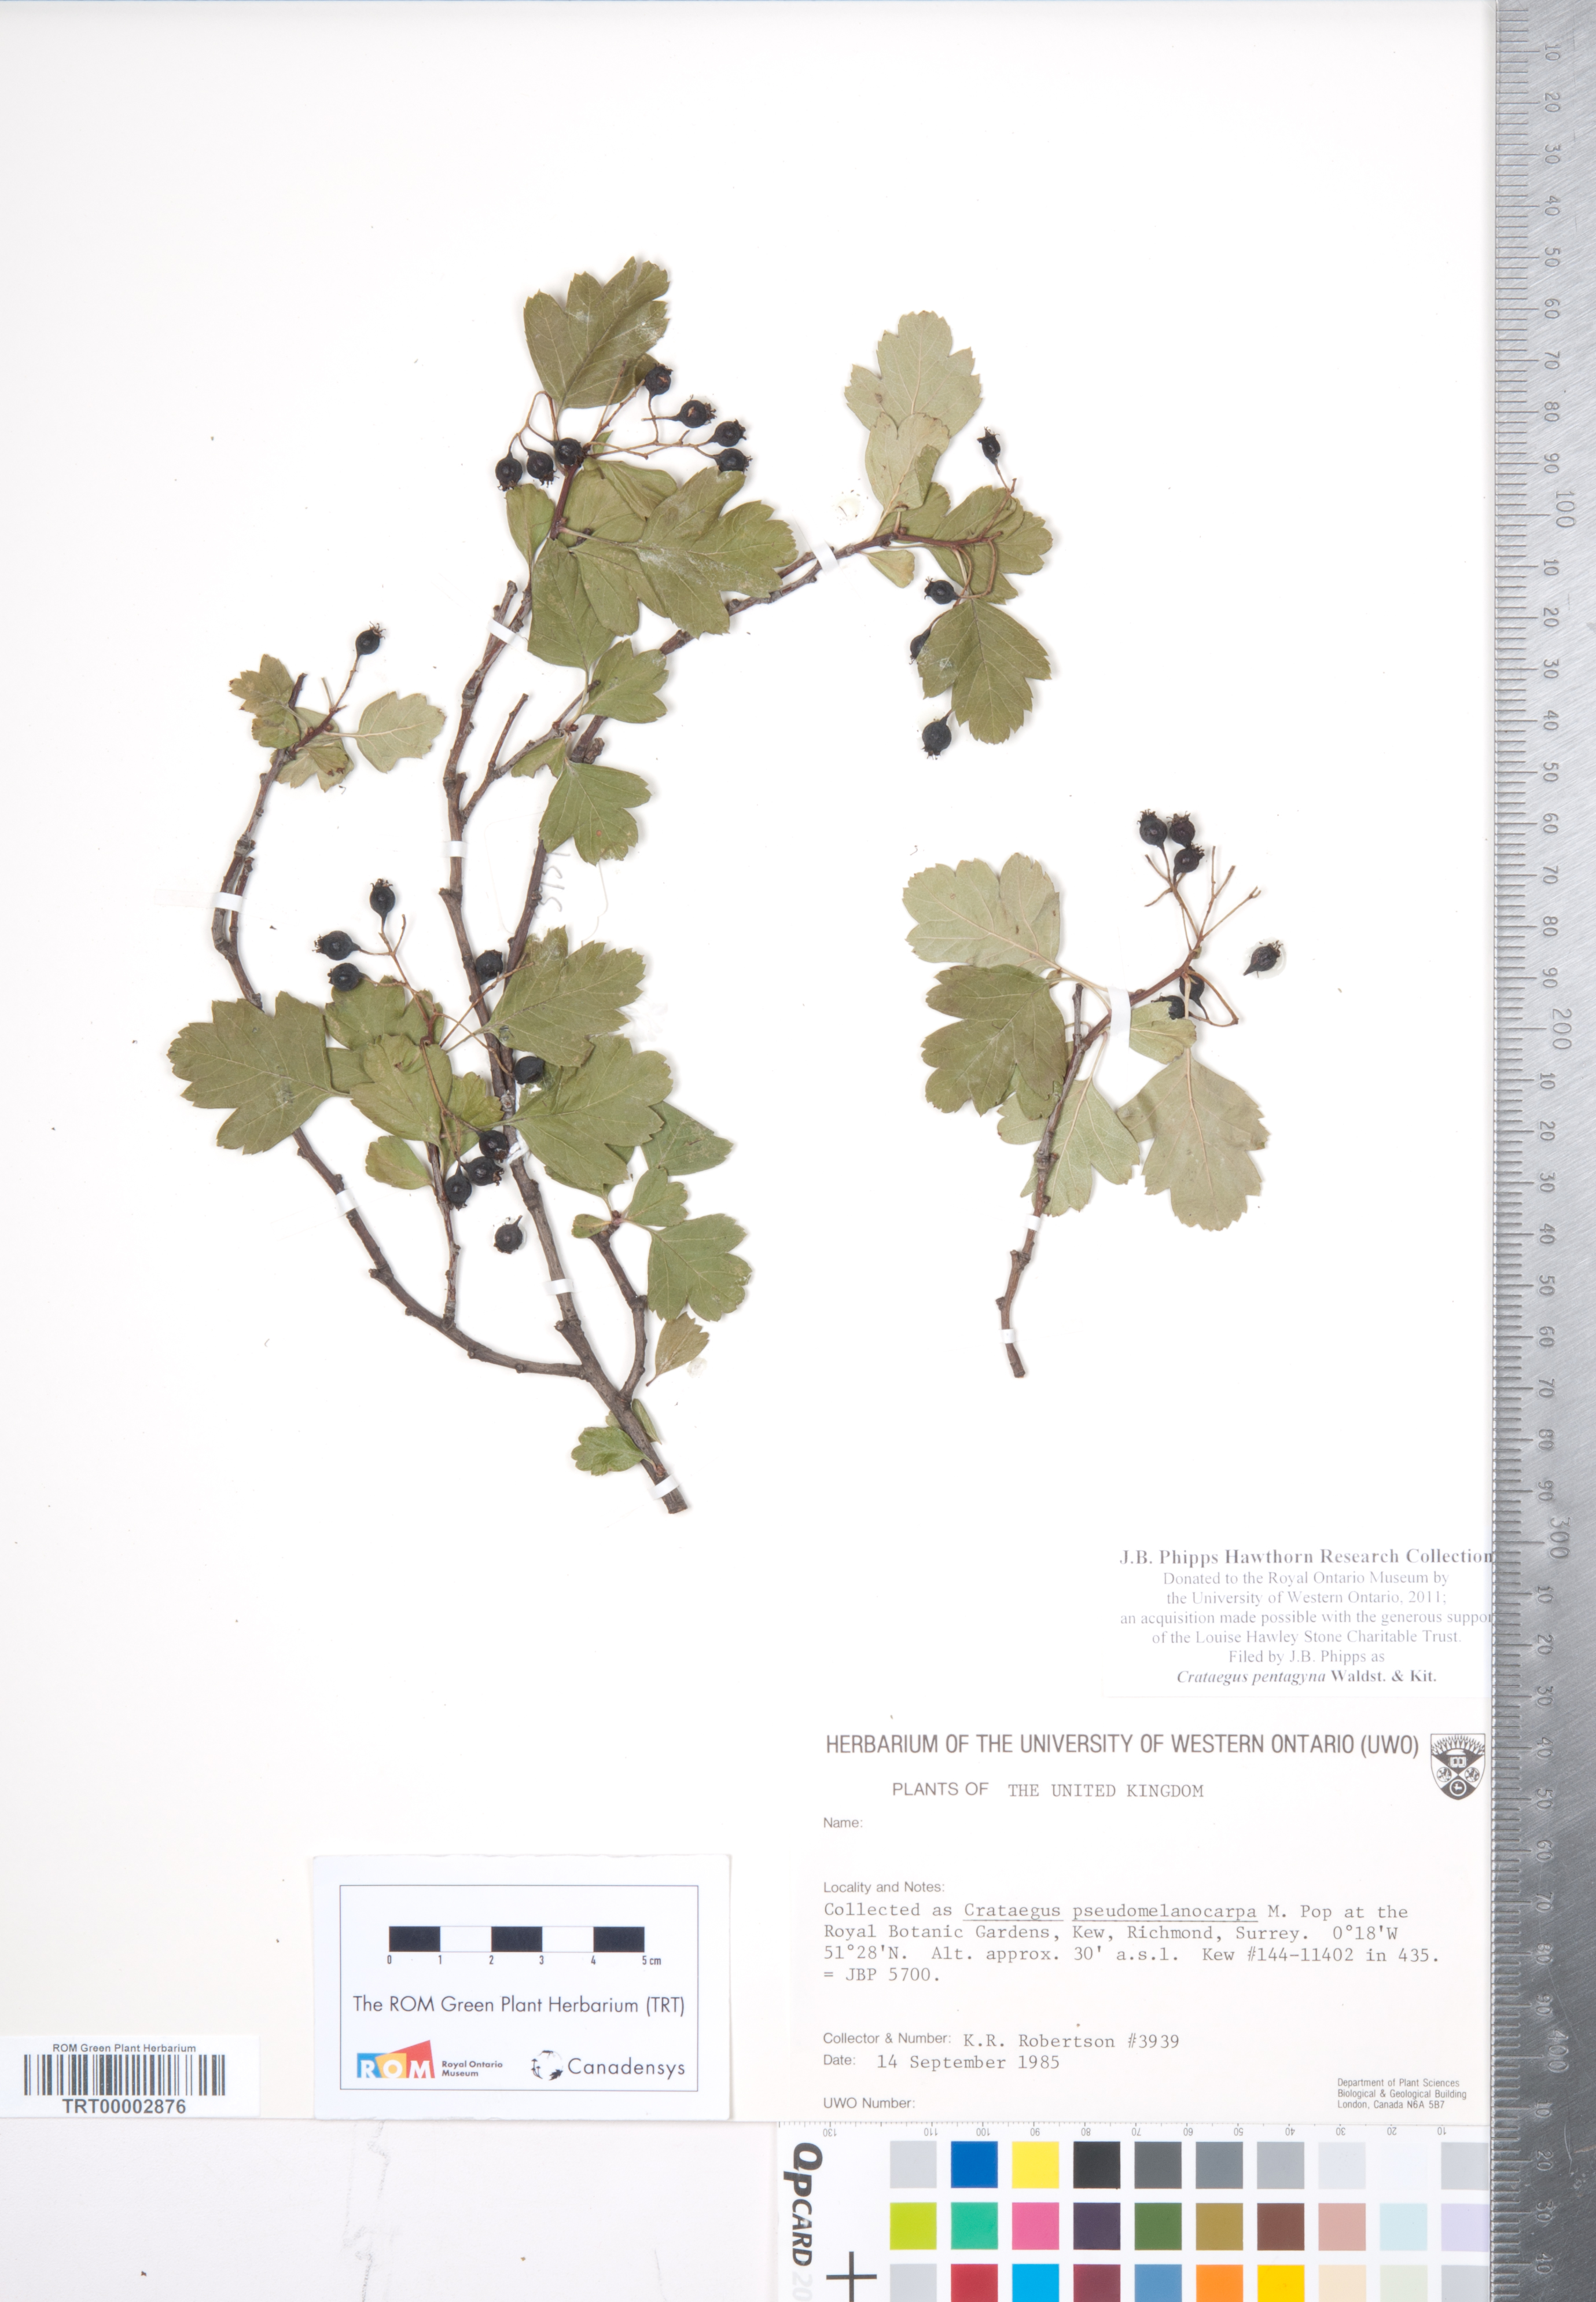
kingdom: Plantae
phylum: Tracheophyta
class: Magnoliopsida
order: Rosales
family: Rosaceae
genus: Crataegus
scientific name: Crataegus pentagyna
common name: Small-flowered black hawthorn
